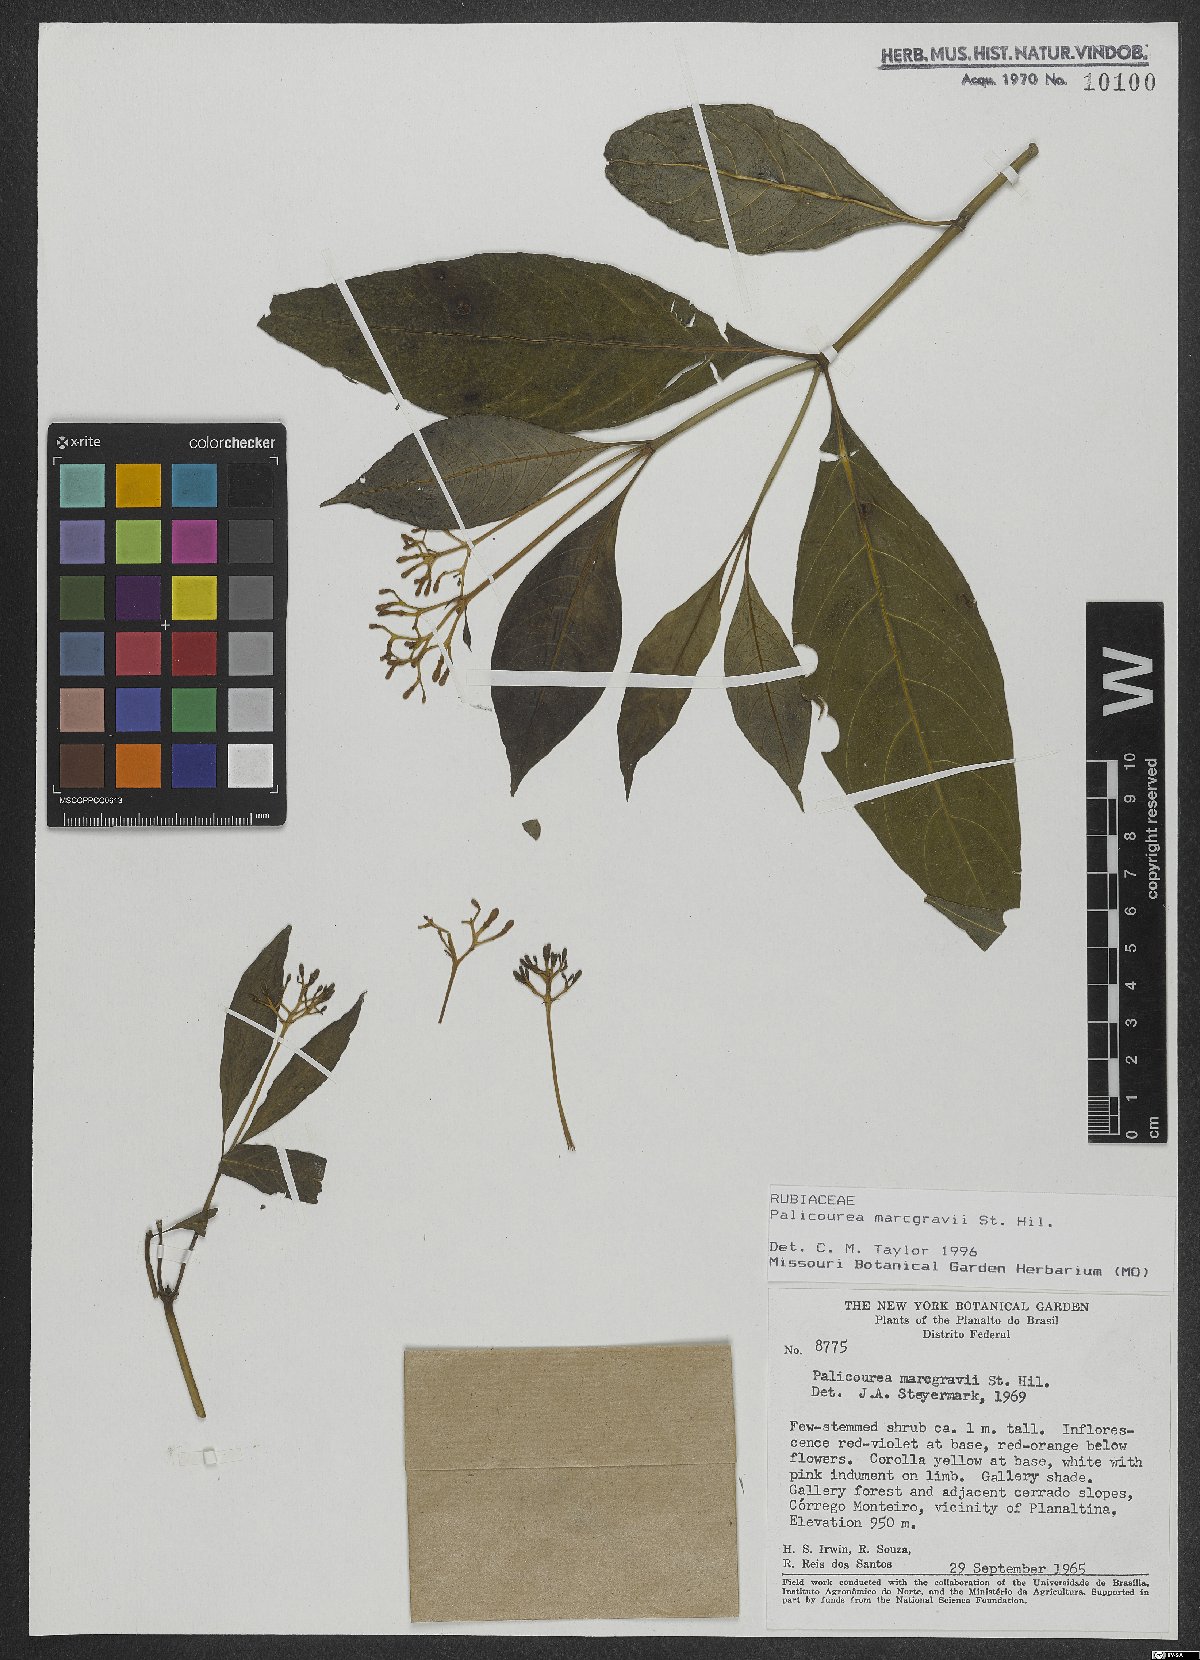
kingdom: Plantae
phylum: Tracheophyta
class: Magnoliopsida
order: Gentianales
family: Rubiaceae
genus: Palicourea
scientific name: Palicourea marcgravii
